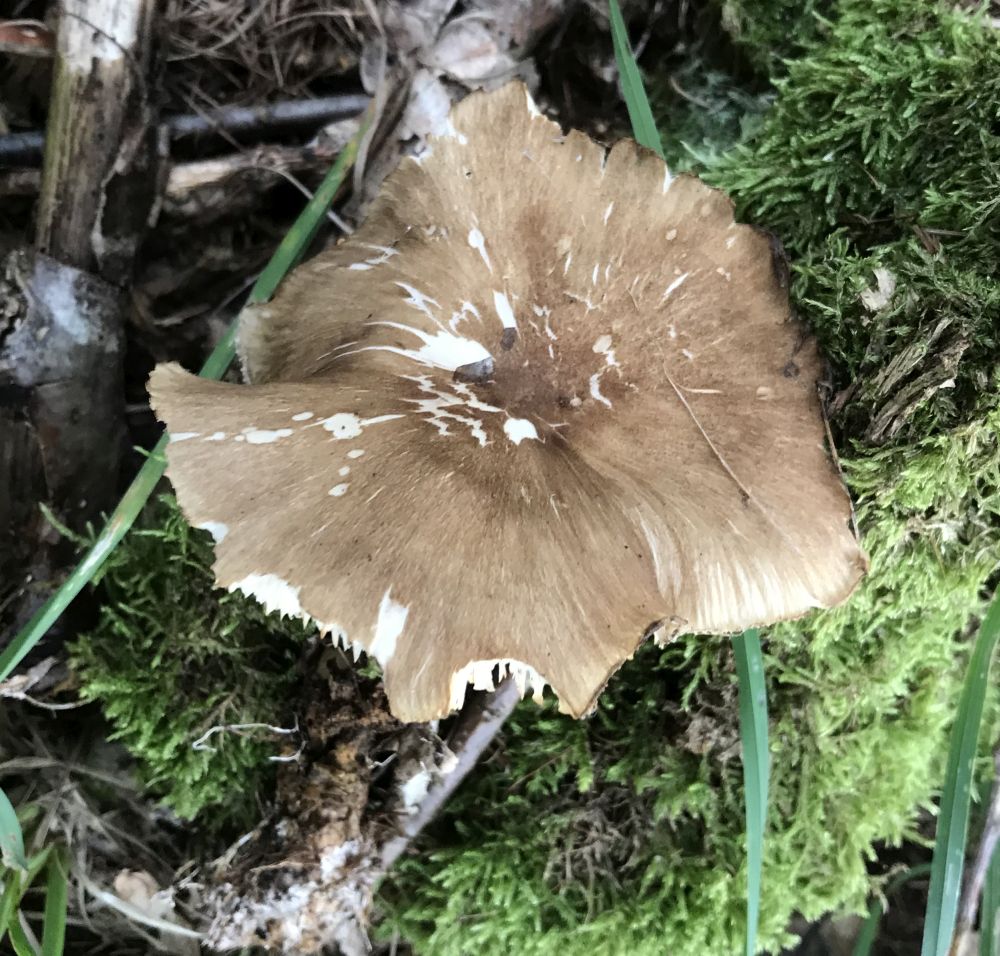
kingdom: Fungi
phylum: Basidiomycota
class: Agaricomycetes
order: Agaricales
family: Tricholomataceae
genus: Megacollybia
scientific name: Megacollybia platyphylla
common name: bredbladet væbnerhat
